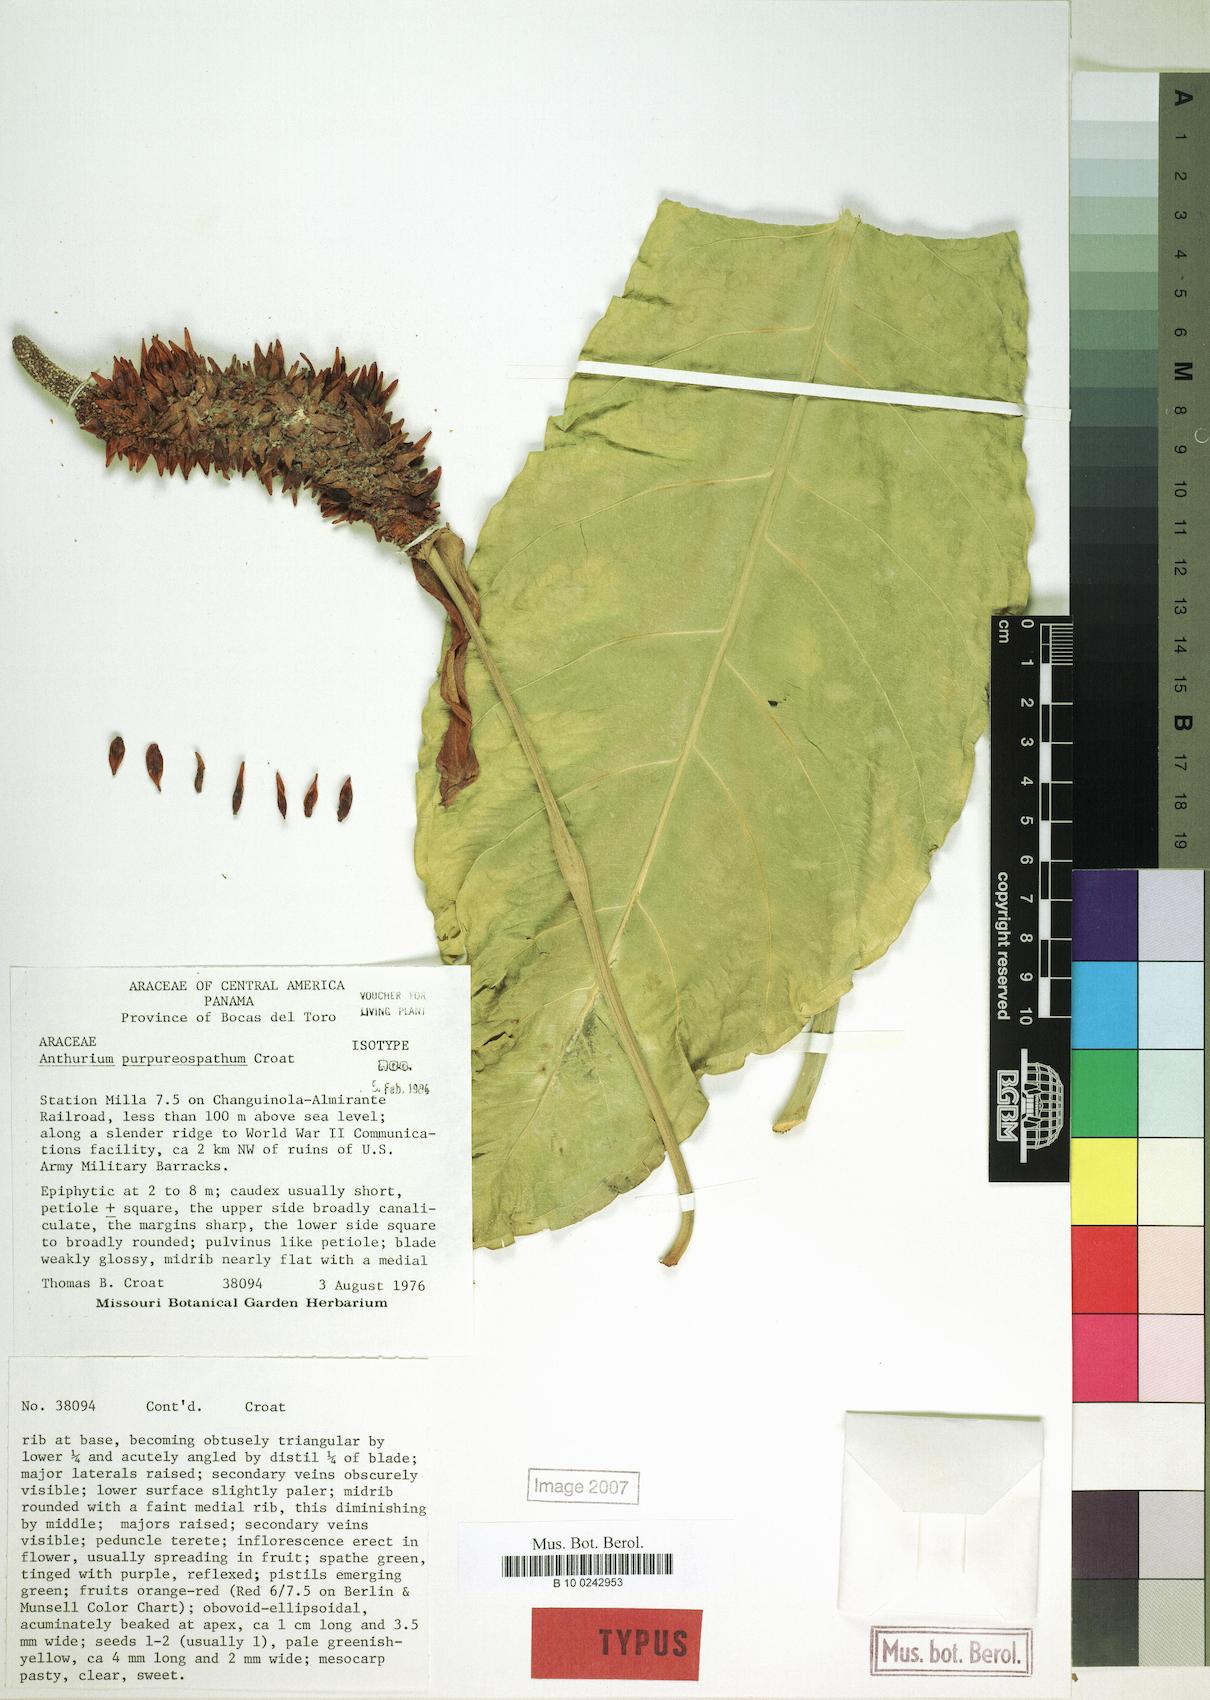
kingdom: Plantae
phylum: Tracheophyta
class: Liliopsida
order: Alismatales
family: Araceae
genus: Anthurium
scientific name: Anthurium purpureospathum
